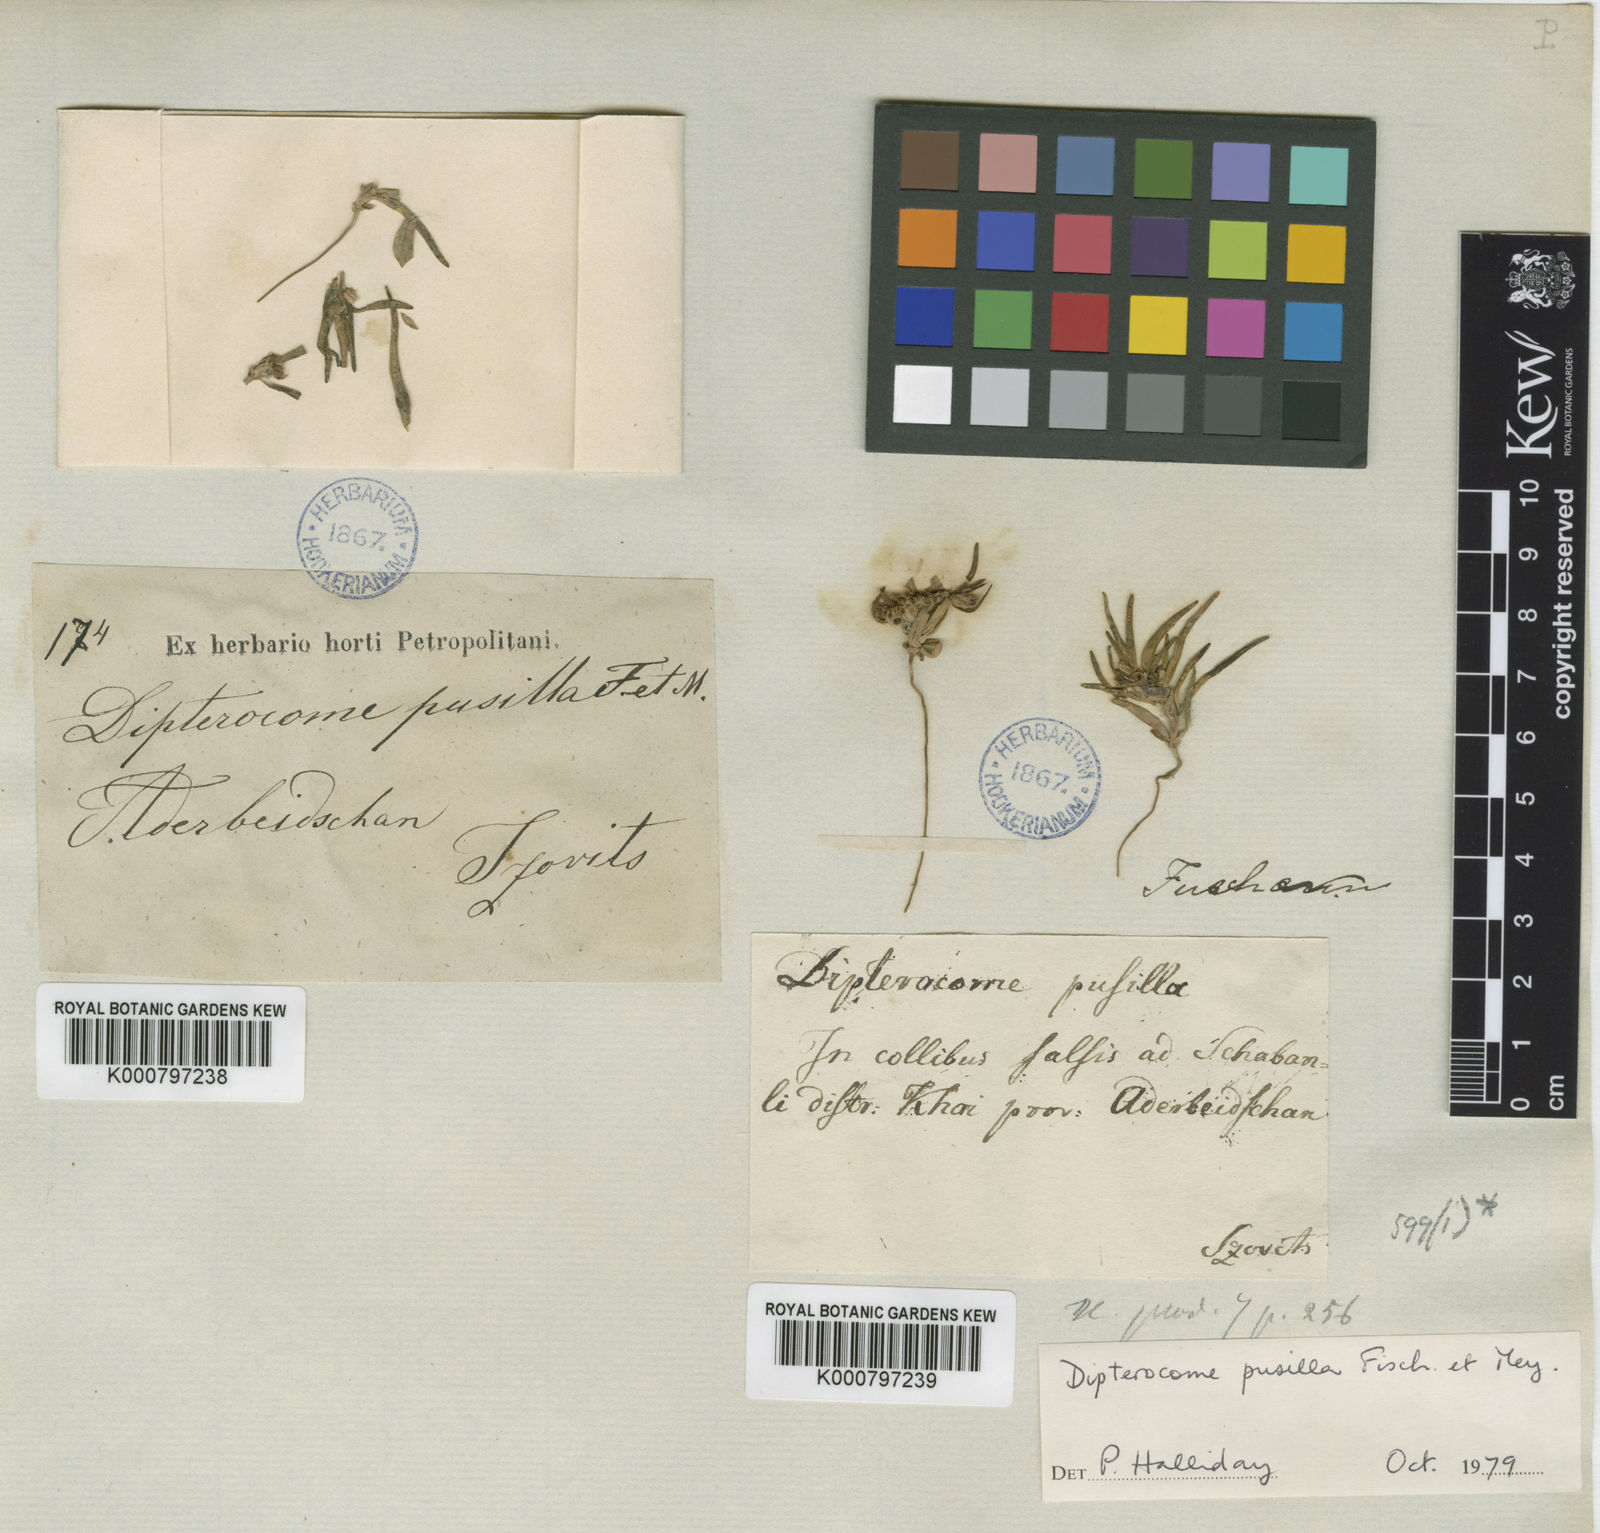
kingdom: Plantae
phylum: Tracheophyta
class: Magnoliopsida
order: Asterales
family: Asteraceae
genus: Dipterocome
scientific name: Dipterocome pusilla
